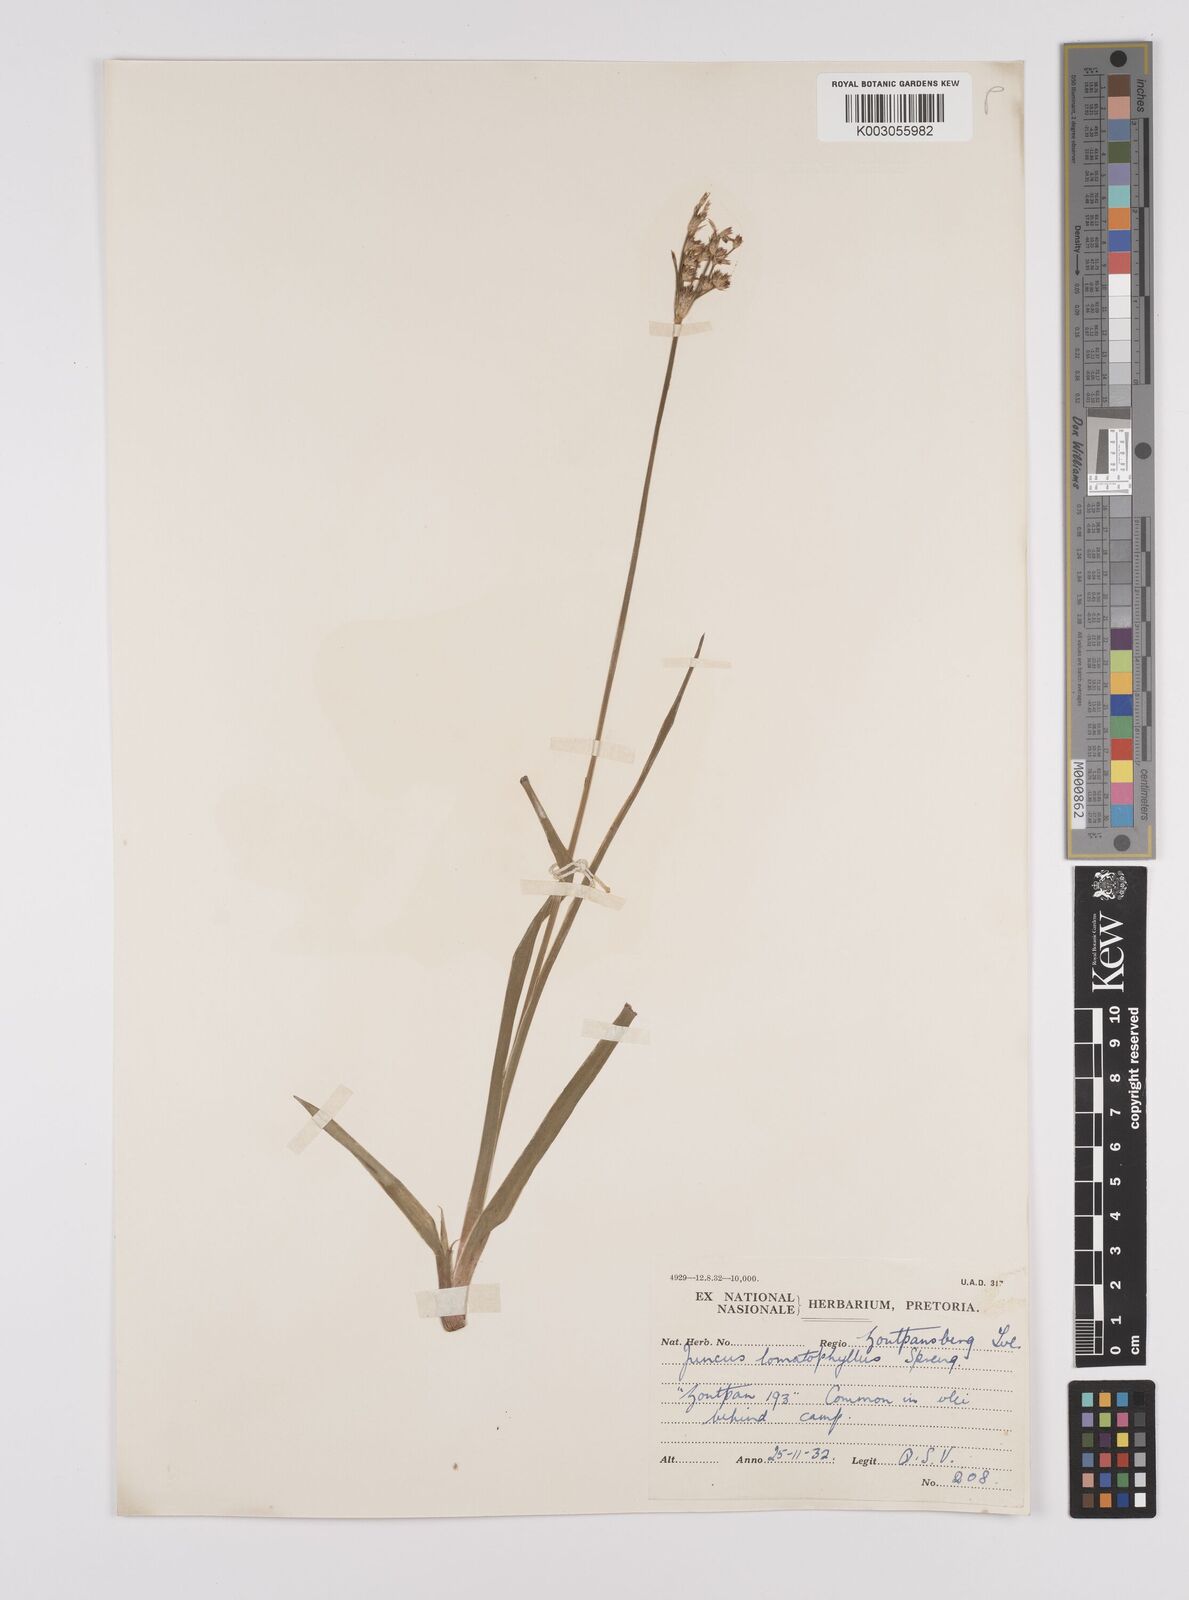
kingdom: Plantae
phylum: Tracheophyta
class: Liliopsida
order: Poales
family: Juncaceae
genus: Juncus
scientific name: Juncus lomatophyllus
